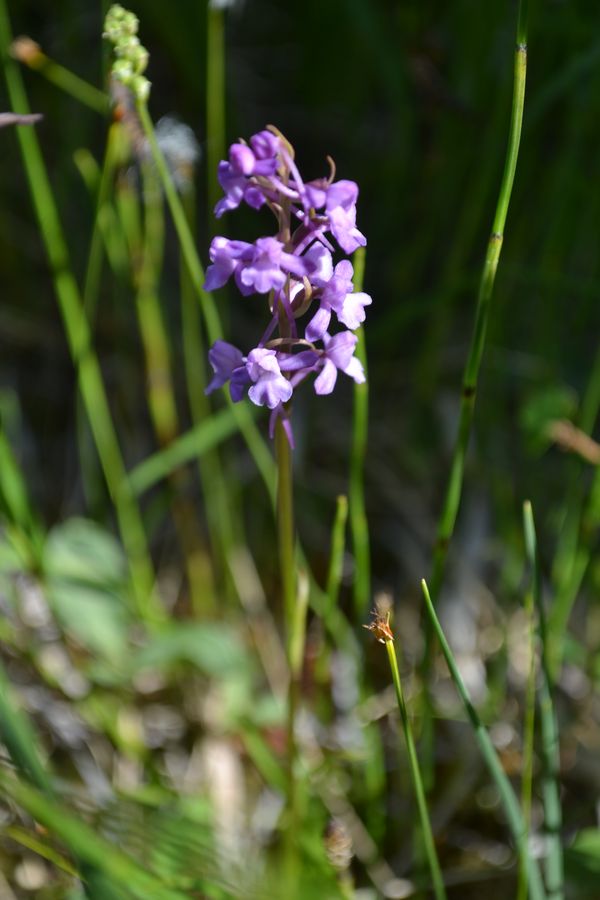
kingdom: Plantae
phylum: Tracheophyta
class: Liliopsida
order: Asparagales
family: Orchidaceae
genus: Dactylorhiza
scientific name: Dactylorhiza maculata
